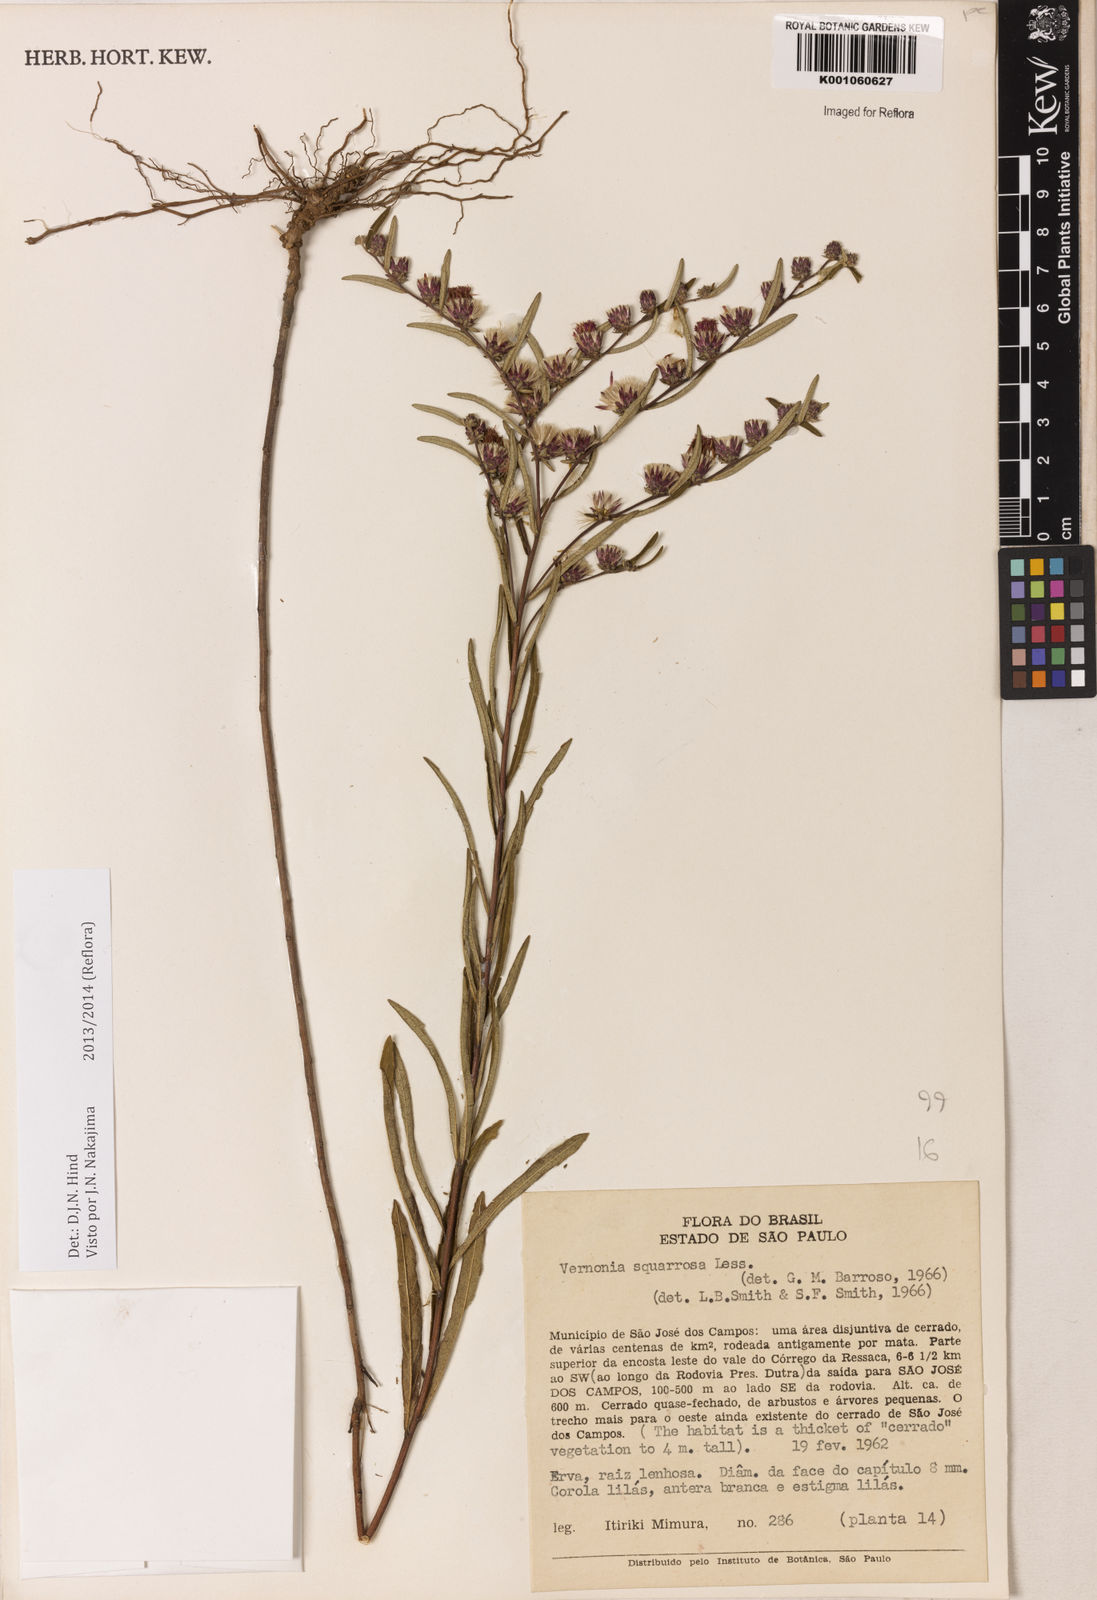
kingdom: Plantae
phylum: Tracheophyta
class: Magnoliopsida
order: Asterales
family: Asteraceae
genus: Lessingianthus
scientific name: Lessingianthus plantaginoides
